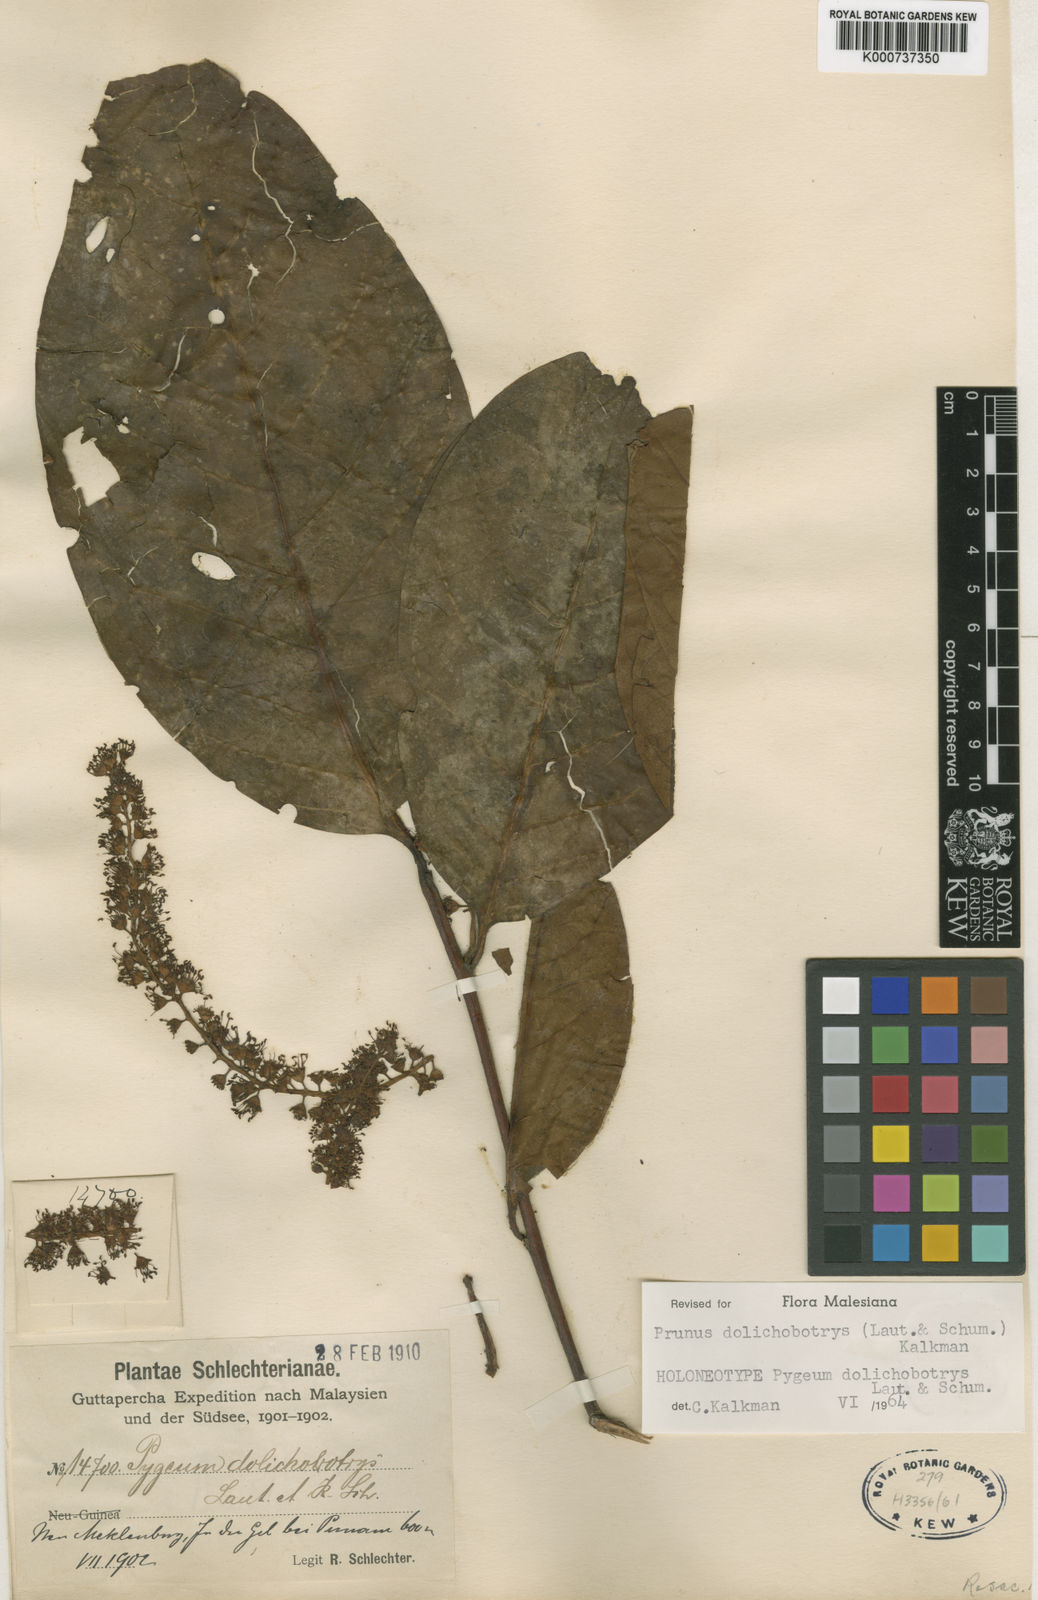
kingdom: Plantae
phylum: Tracheophyta
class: Magnoliopsida
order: Rosales
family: Rosaceae
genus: Prunus
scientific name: Prunus dolichobotrys
